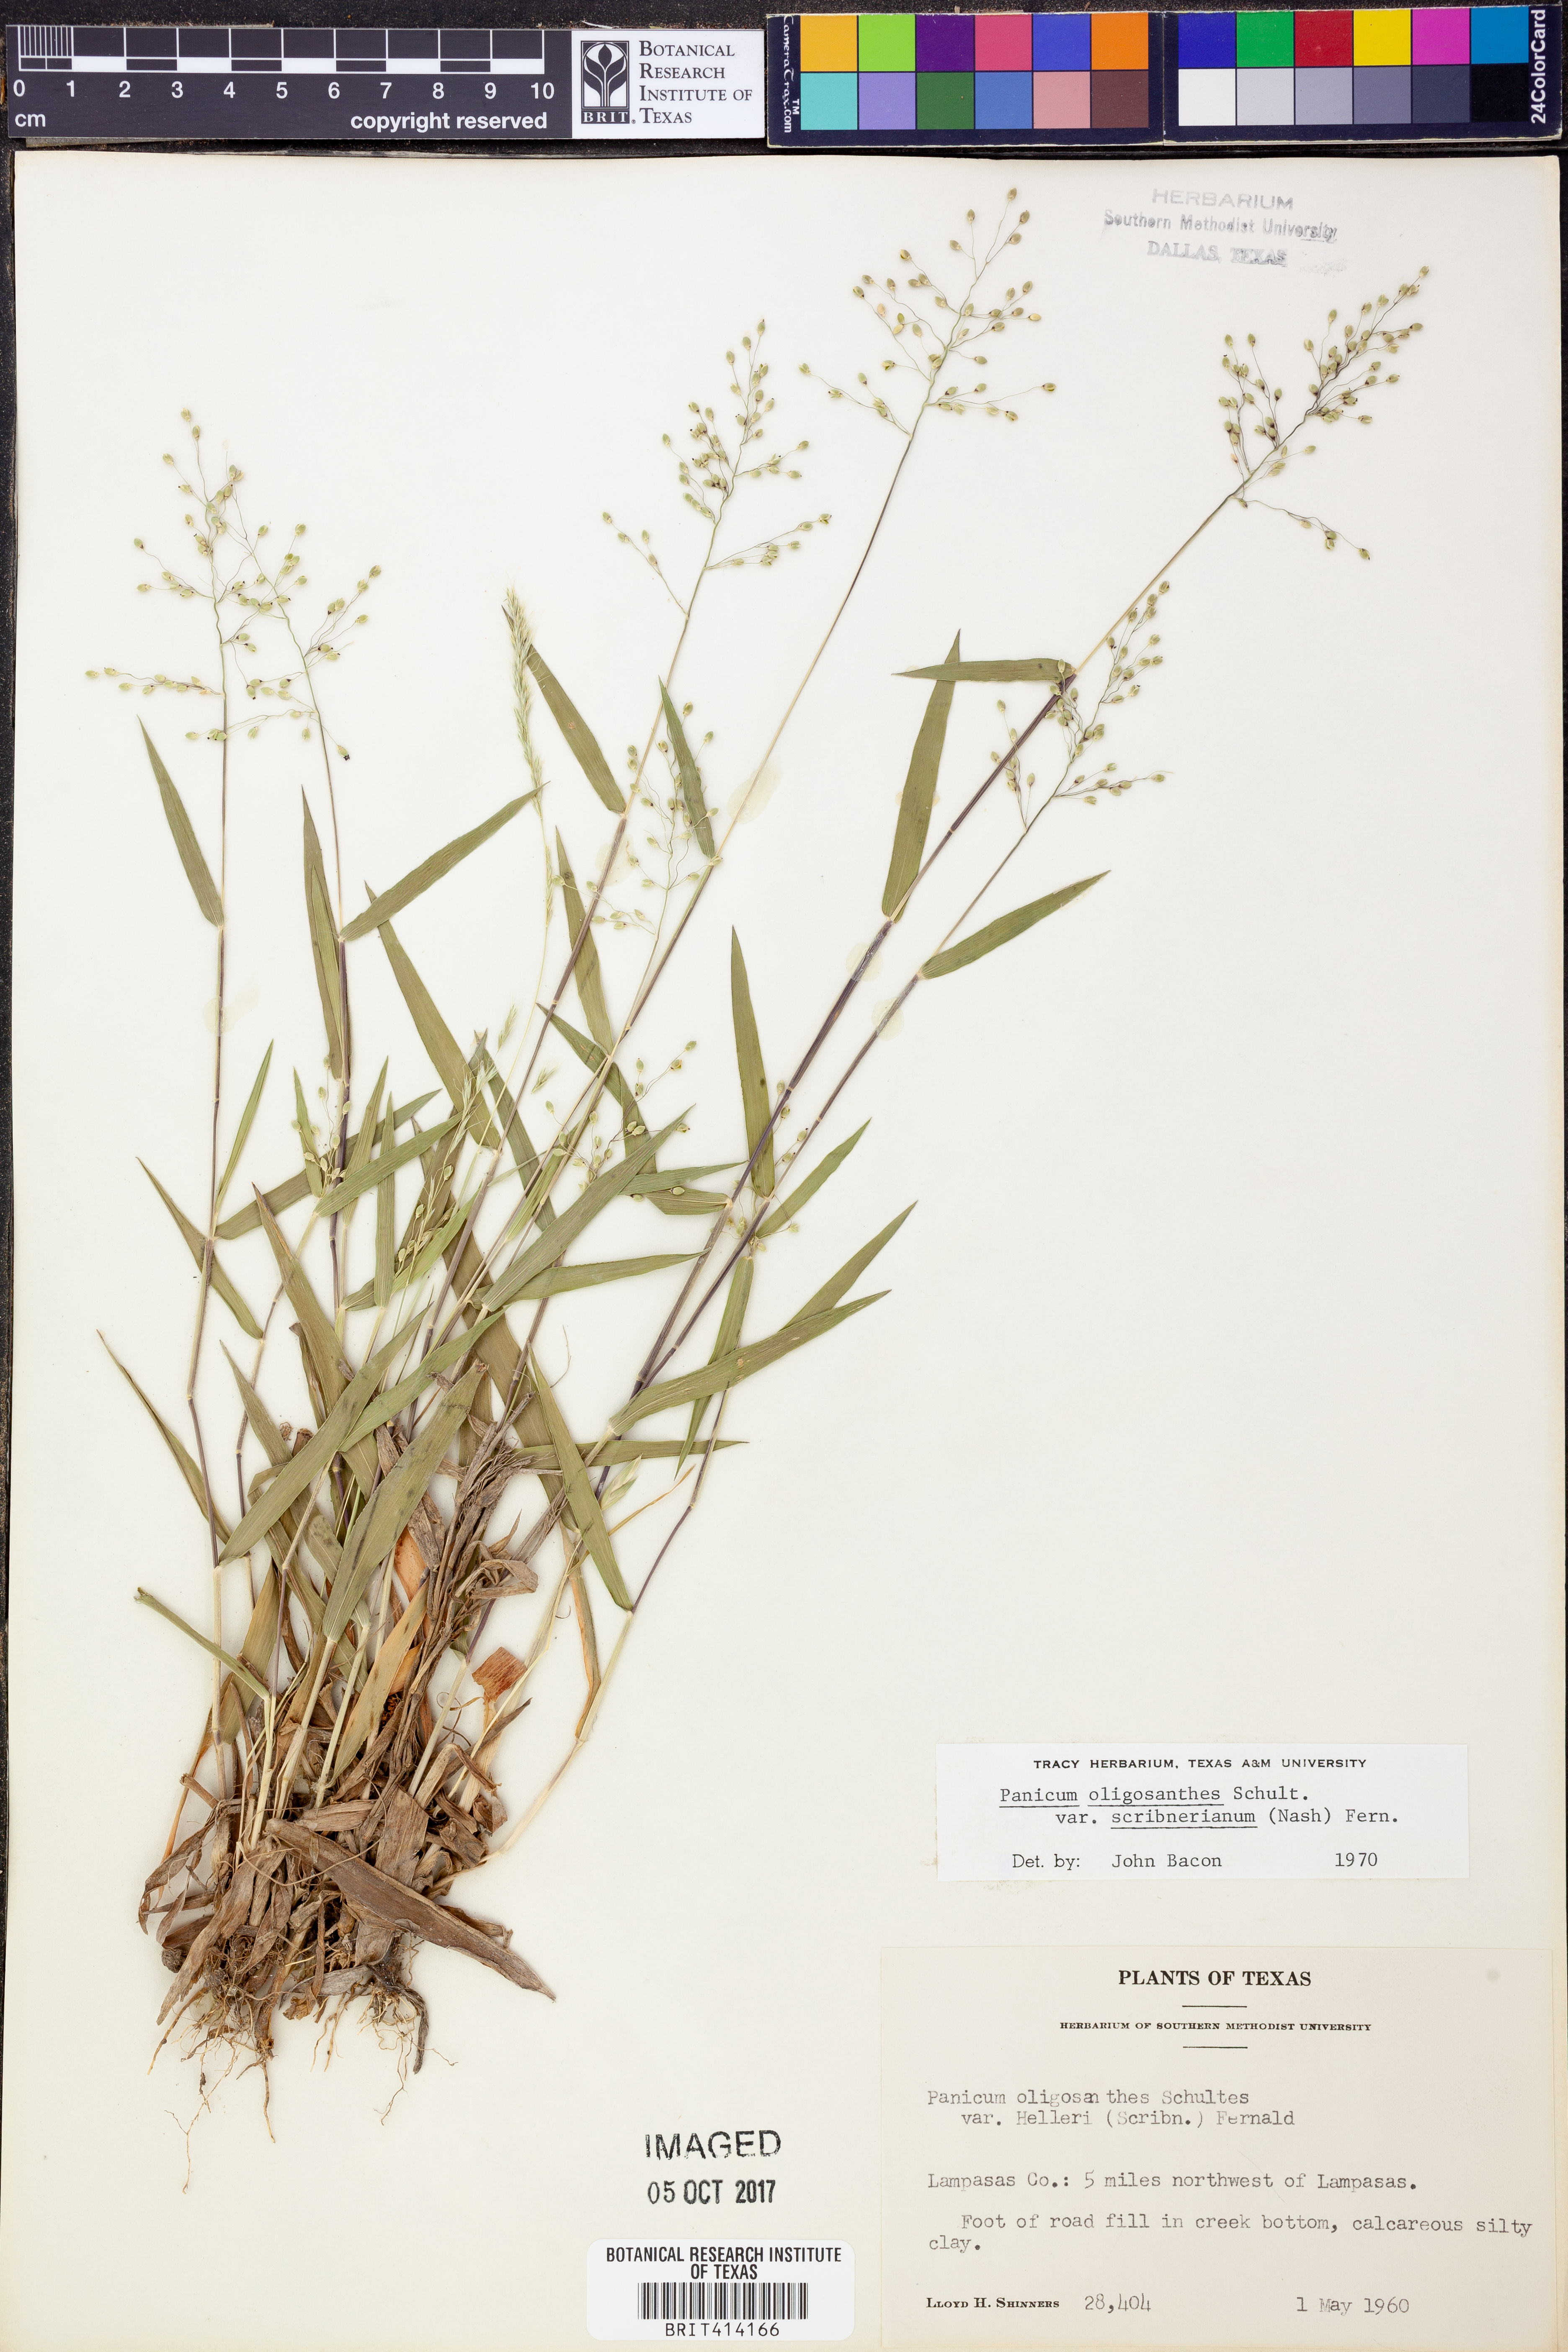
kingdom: Plantae
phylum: Tracheophyta
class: Liliopsida
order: Poales
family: Poaceae
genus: Dichanthelium
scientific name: Dichanthelium scribnerianum
